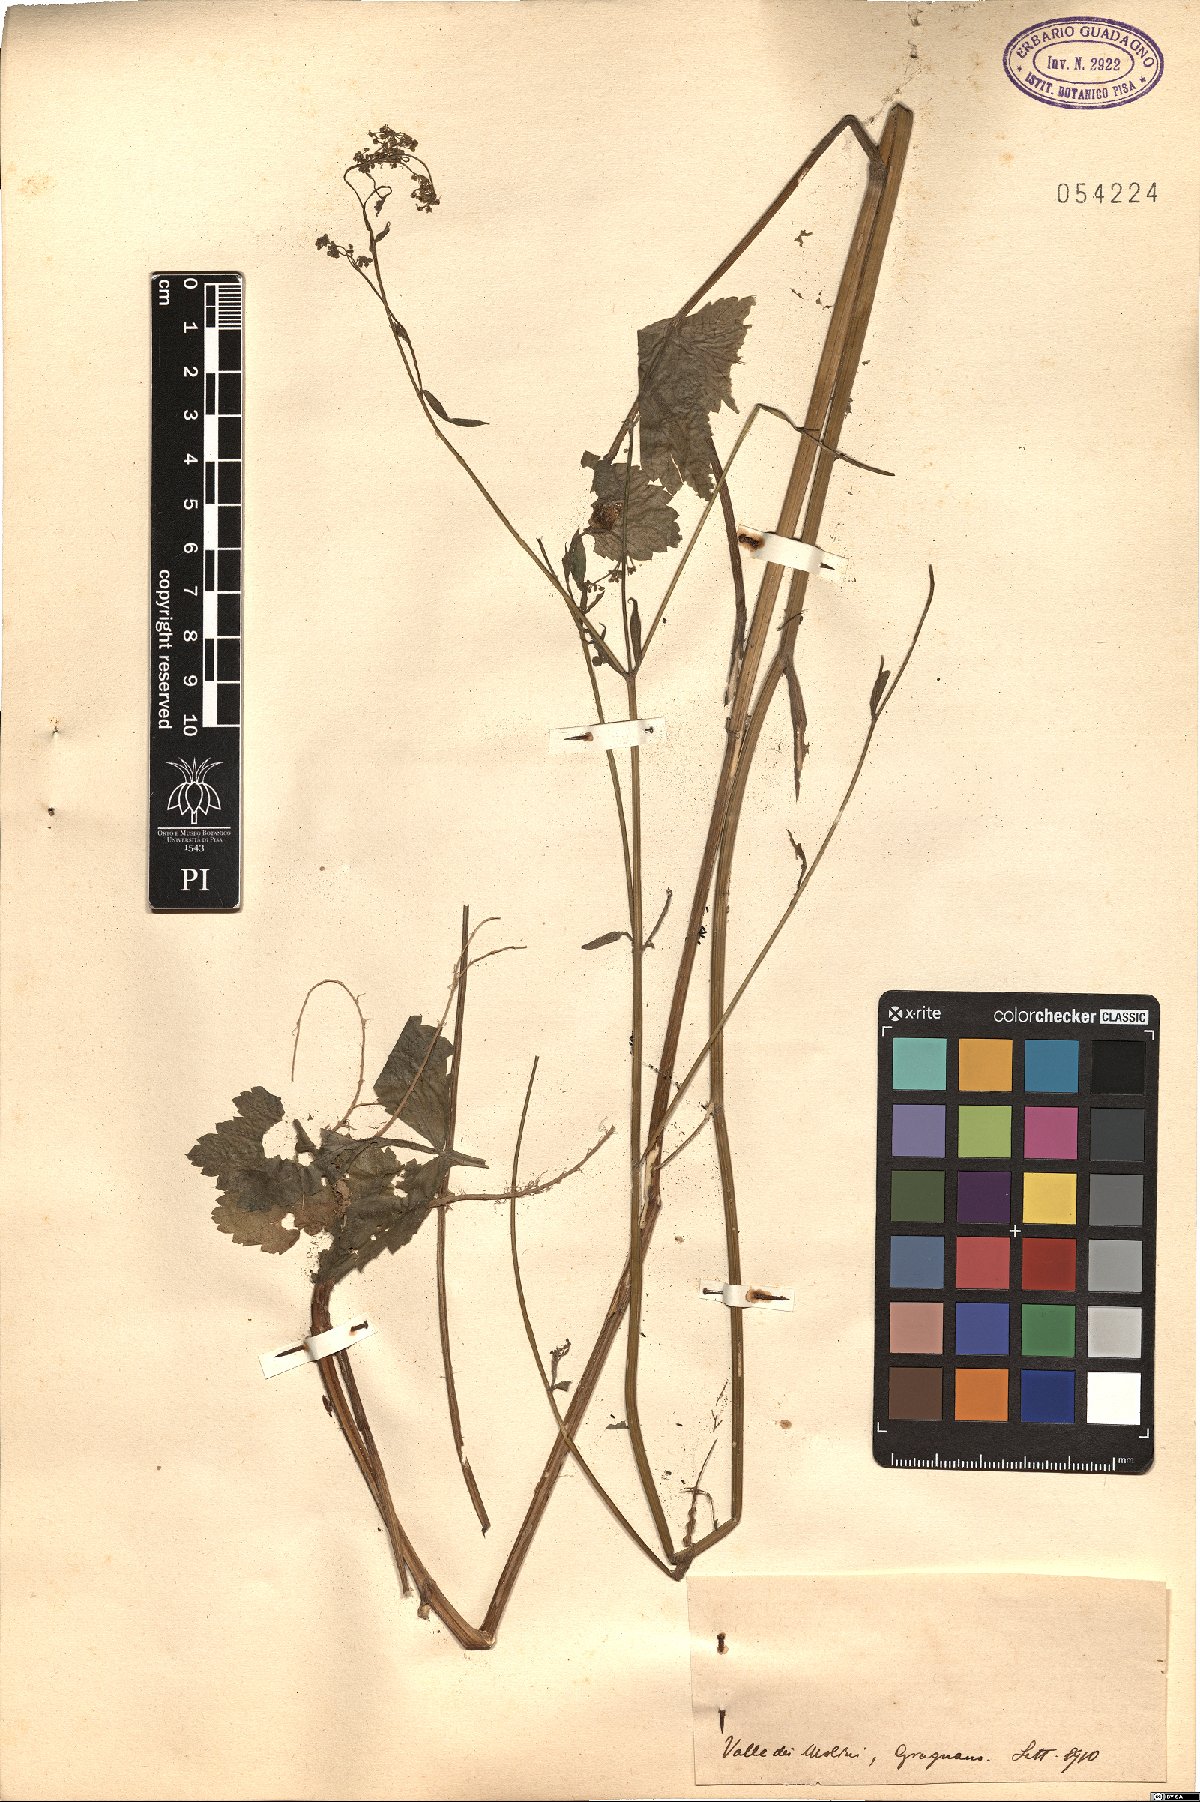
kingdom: Plantae
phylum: Tracheophyta
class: Magnoliopsida
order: Apiales
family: Apiaceae
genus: Pastinaca
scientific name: Pastinaca
